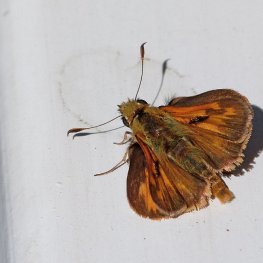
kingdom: Animalia
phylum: Arthropoda
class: Insecta
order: Lepidoptera
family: Hesperiidae
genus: Ochlodes
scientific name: Ochlodes sylvanoides
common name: Woodland Skipper
